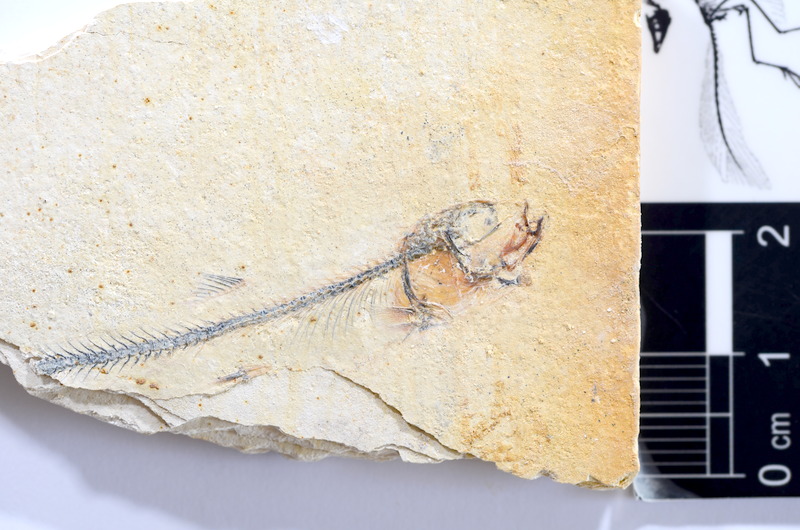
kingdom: Animalia
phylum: Chordata
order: Salmoniformes
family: Orthogonikleithridae
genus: Orthogonikleithrus
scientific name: Orthogonikleithrus hoelli
